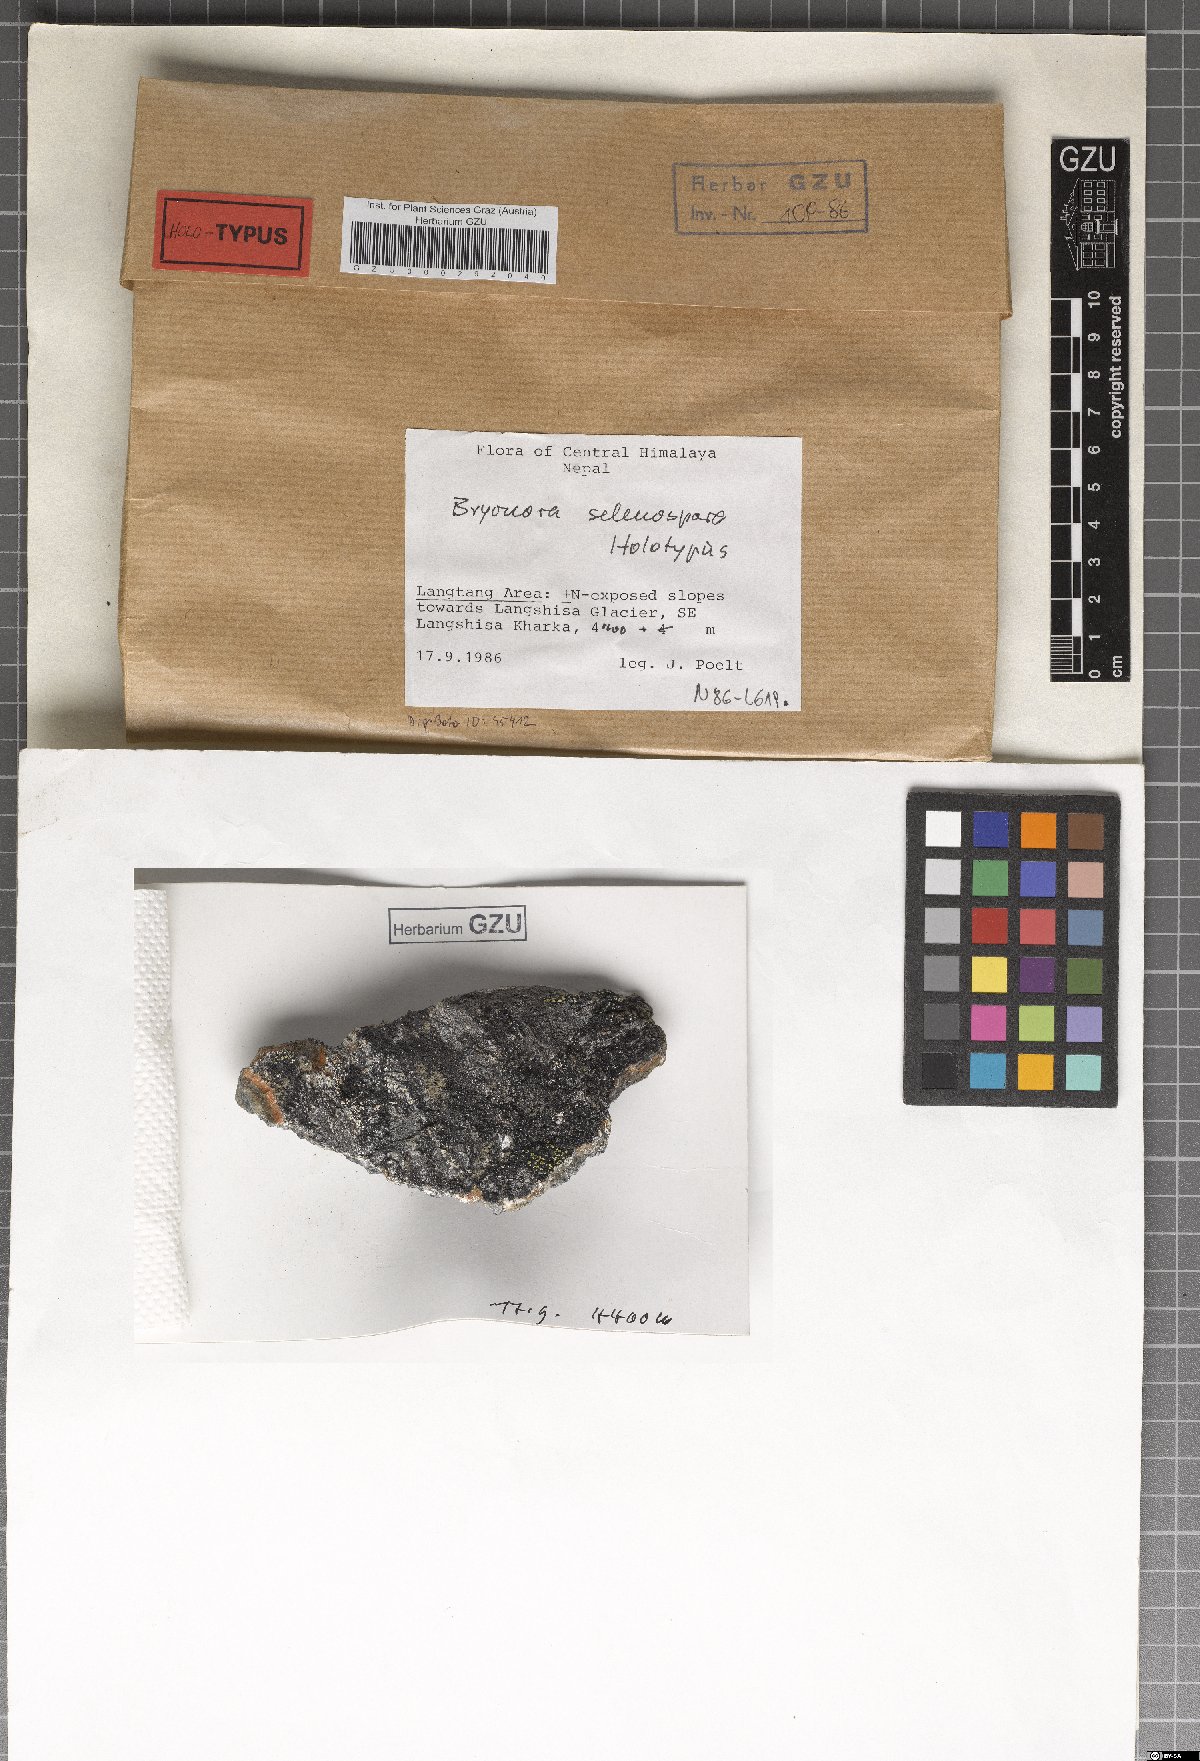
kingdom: Fungi
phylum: Ascomycota
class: Lecanoromycetes
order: Lecanorales
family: Lecanoraceae
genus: Bryodina
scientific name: Bryodina selenospora
